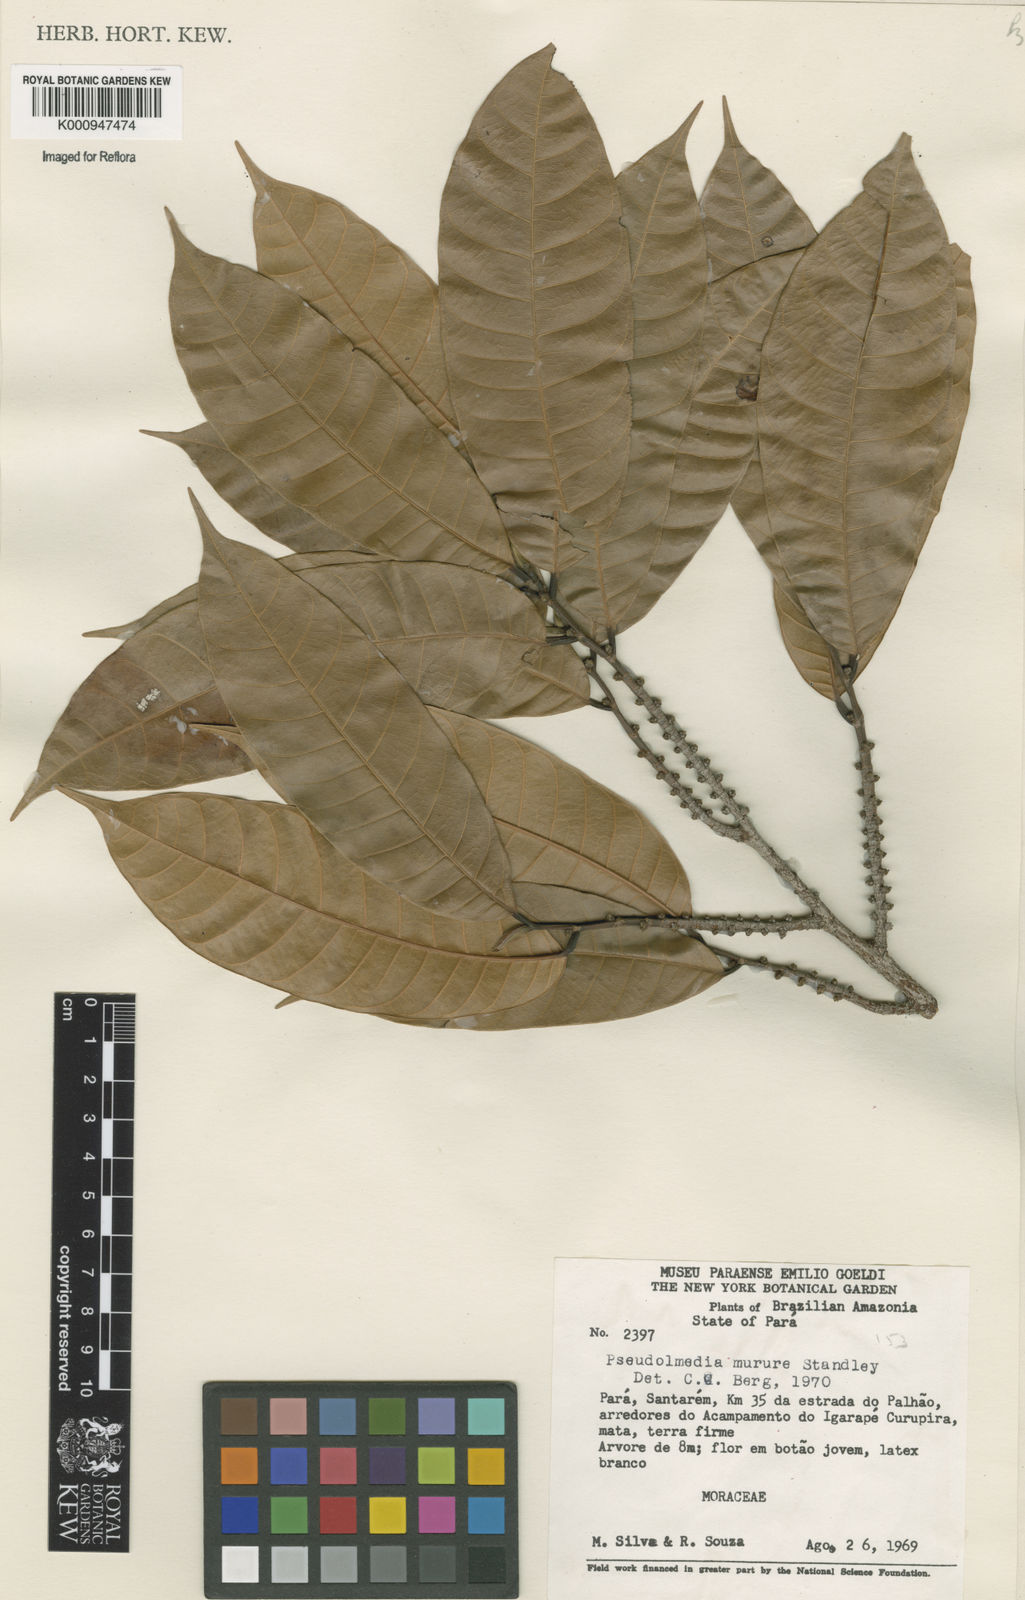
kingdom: Plantae
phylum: Tracheophyta
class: Magnoliopsida
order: Rosales
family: Moraceae
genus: Pseudolmedia
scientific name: Pseudolmedia macrophylla
